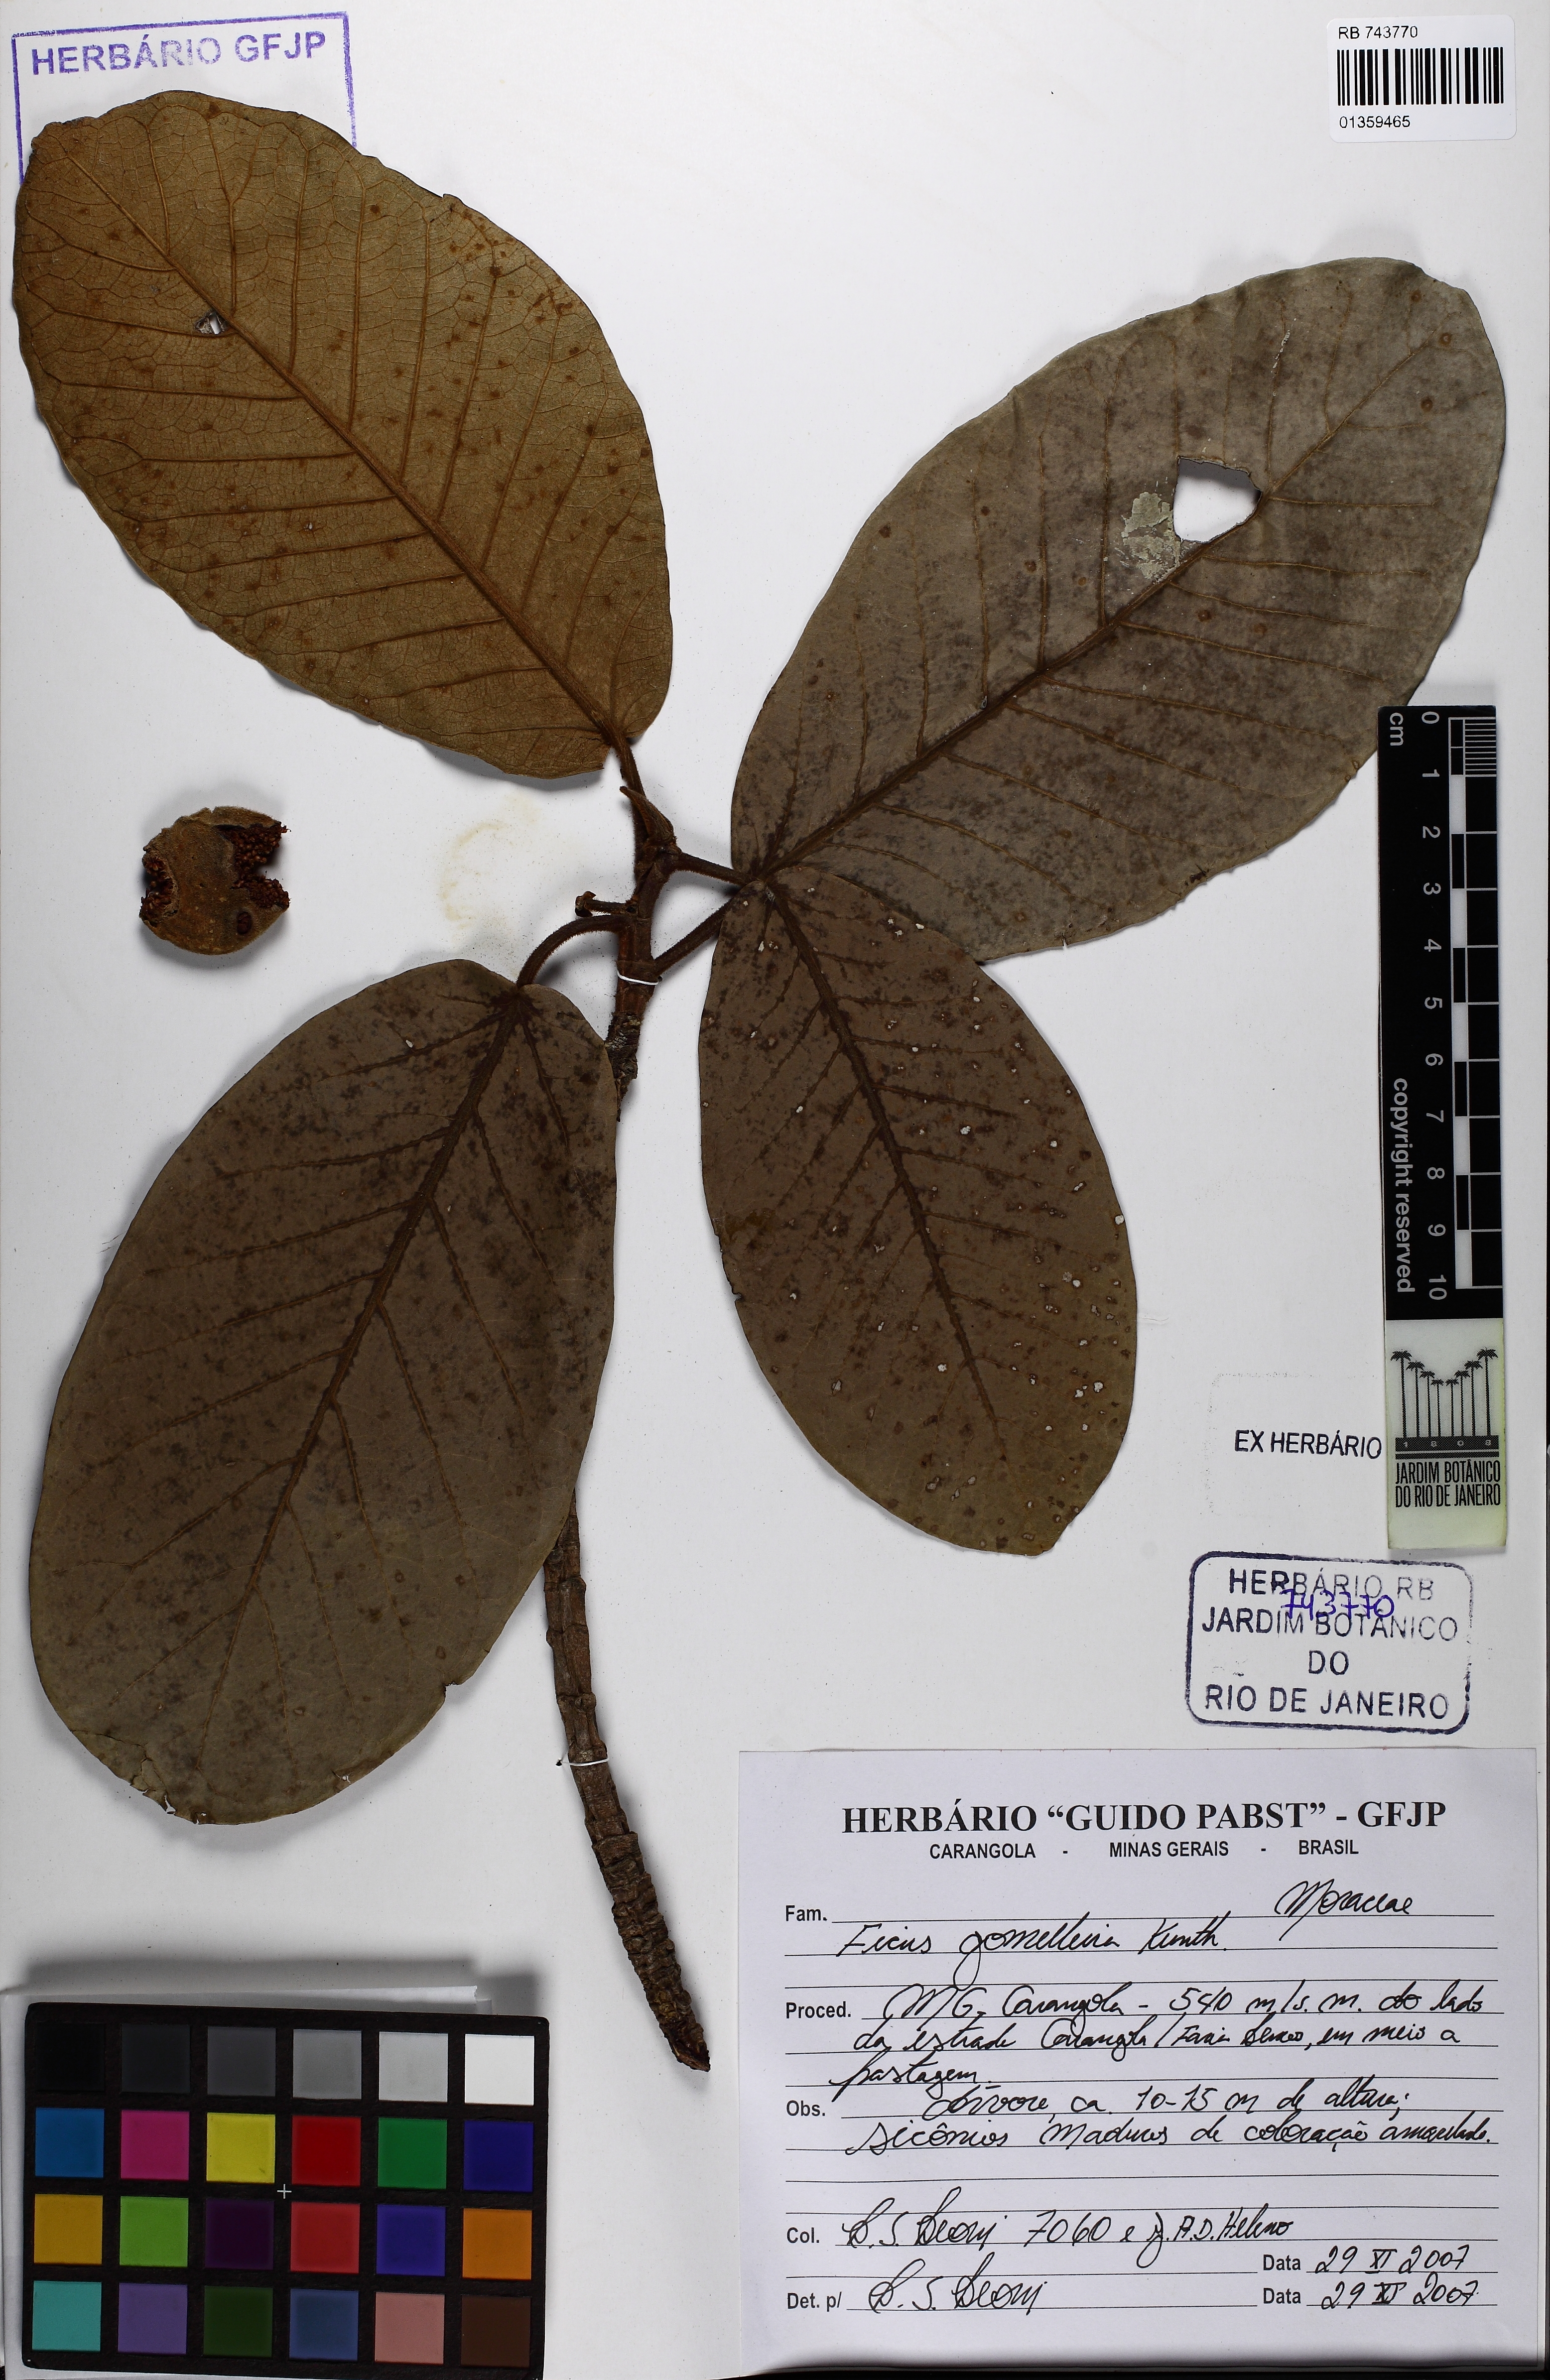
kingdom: Plantae
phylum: Tracheophyta
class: Magnoliopsida
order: Rosales
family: Moraceae
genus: Ficus
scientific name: Ficus gomelleira
